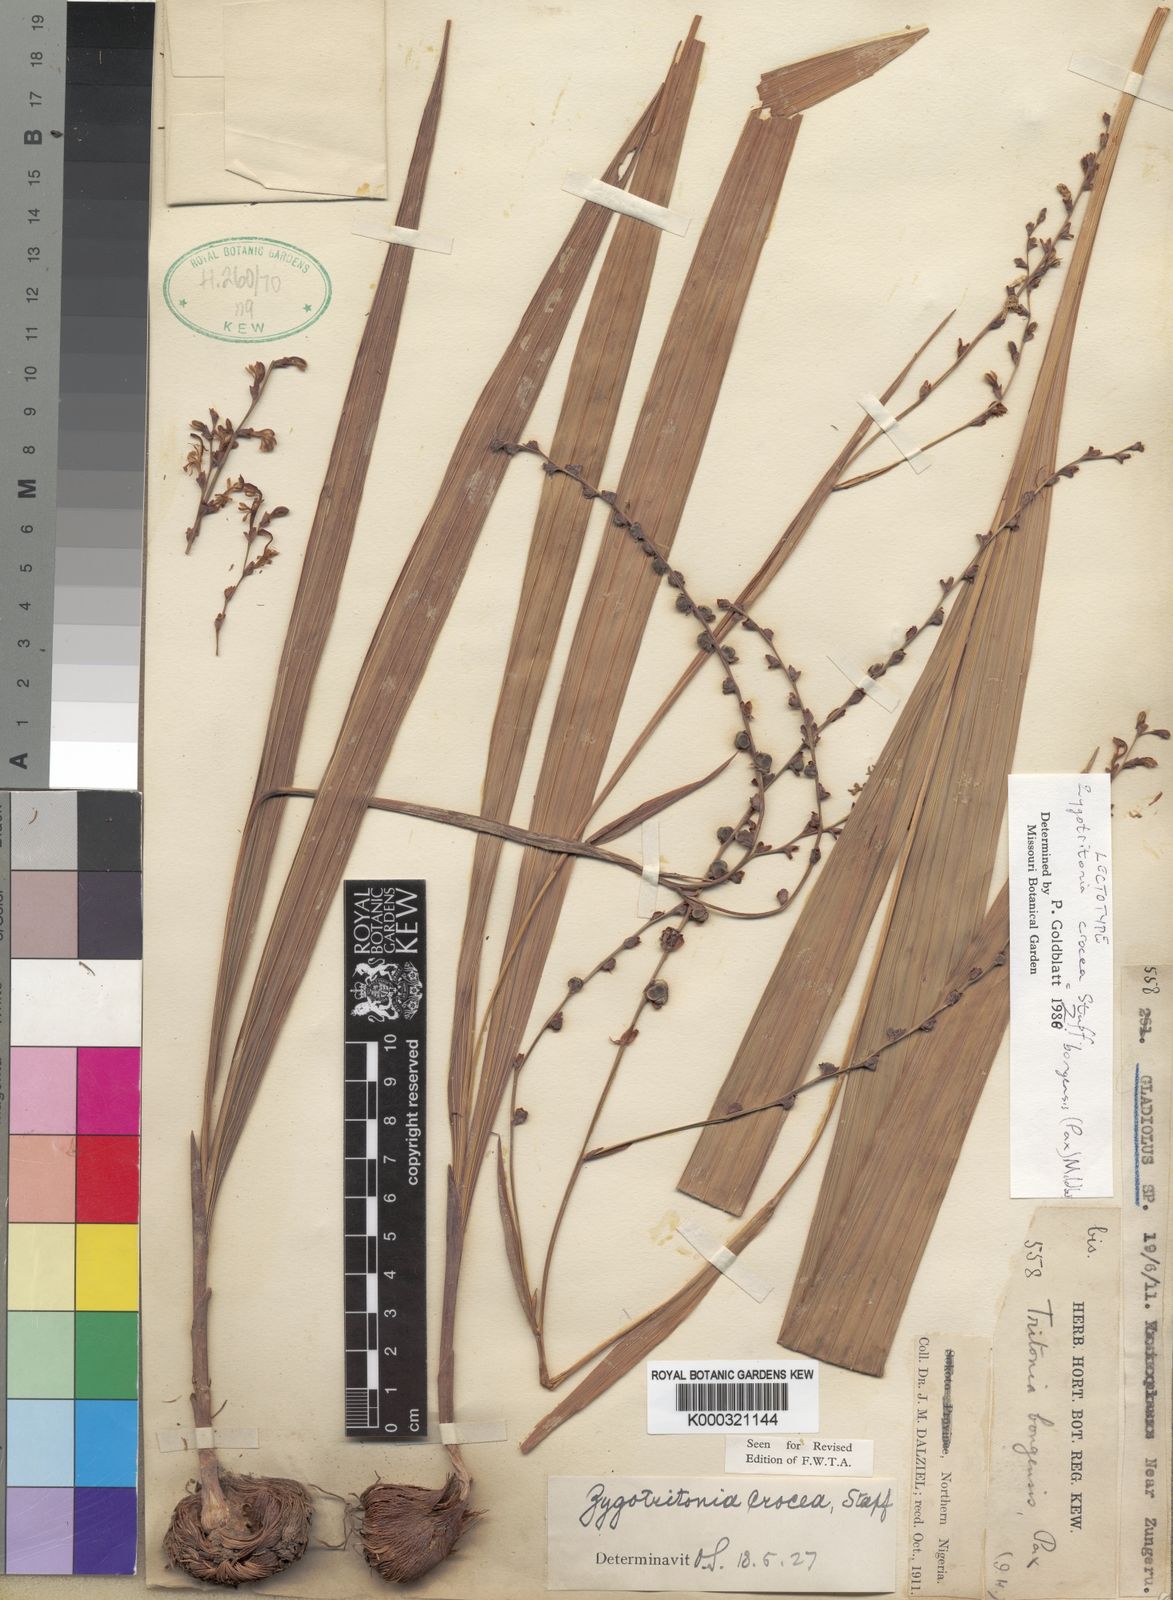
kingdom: Plantae
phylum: Tracheophyta
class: Liliopsida
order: Asparagales
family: Iridaceae
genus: Zygotritonia
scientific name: Zygotritonia bongensis
